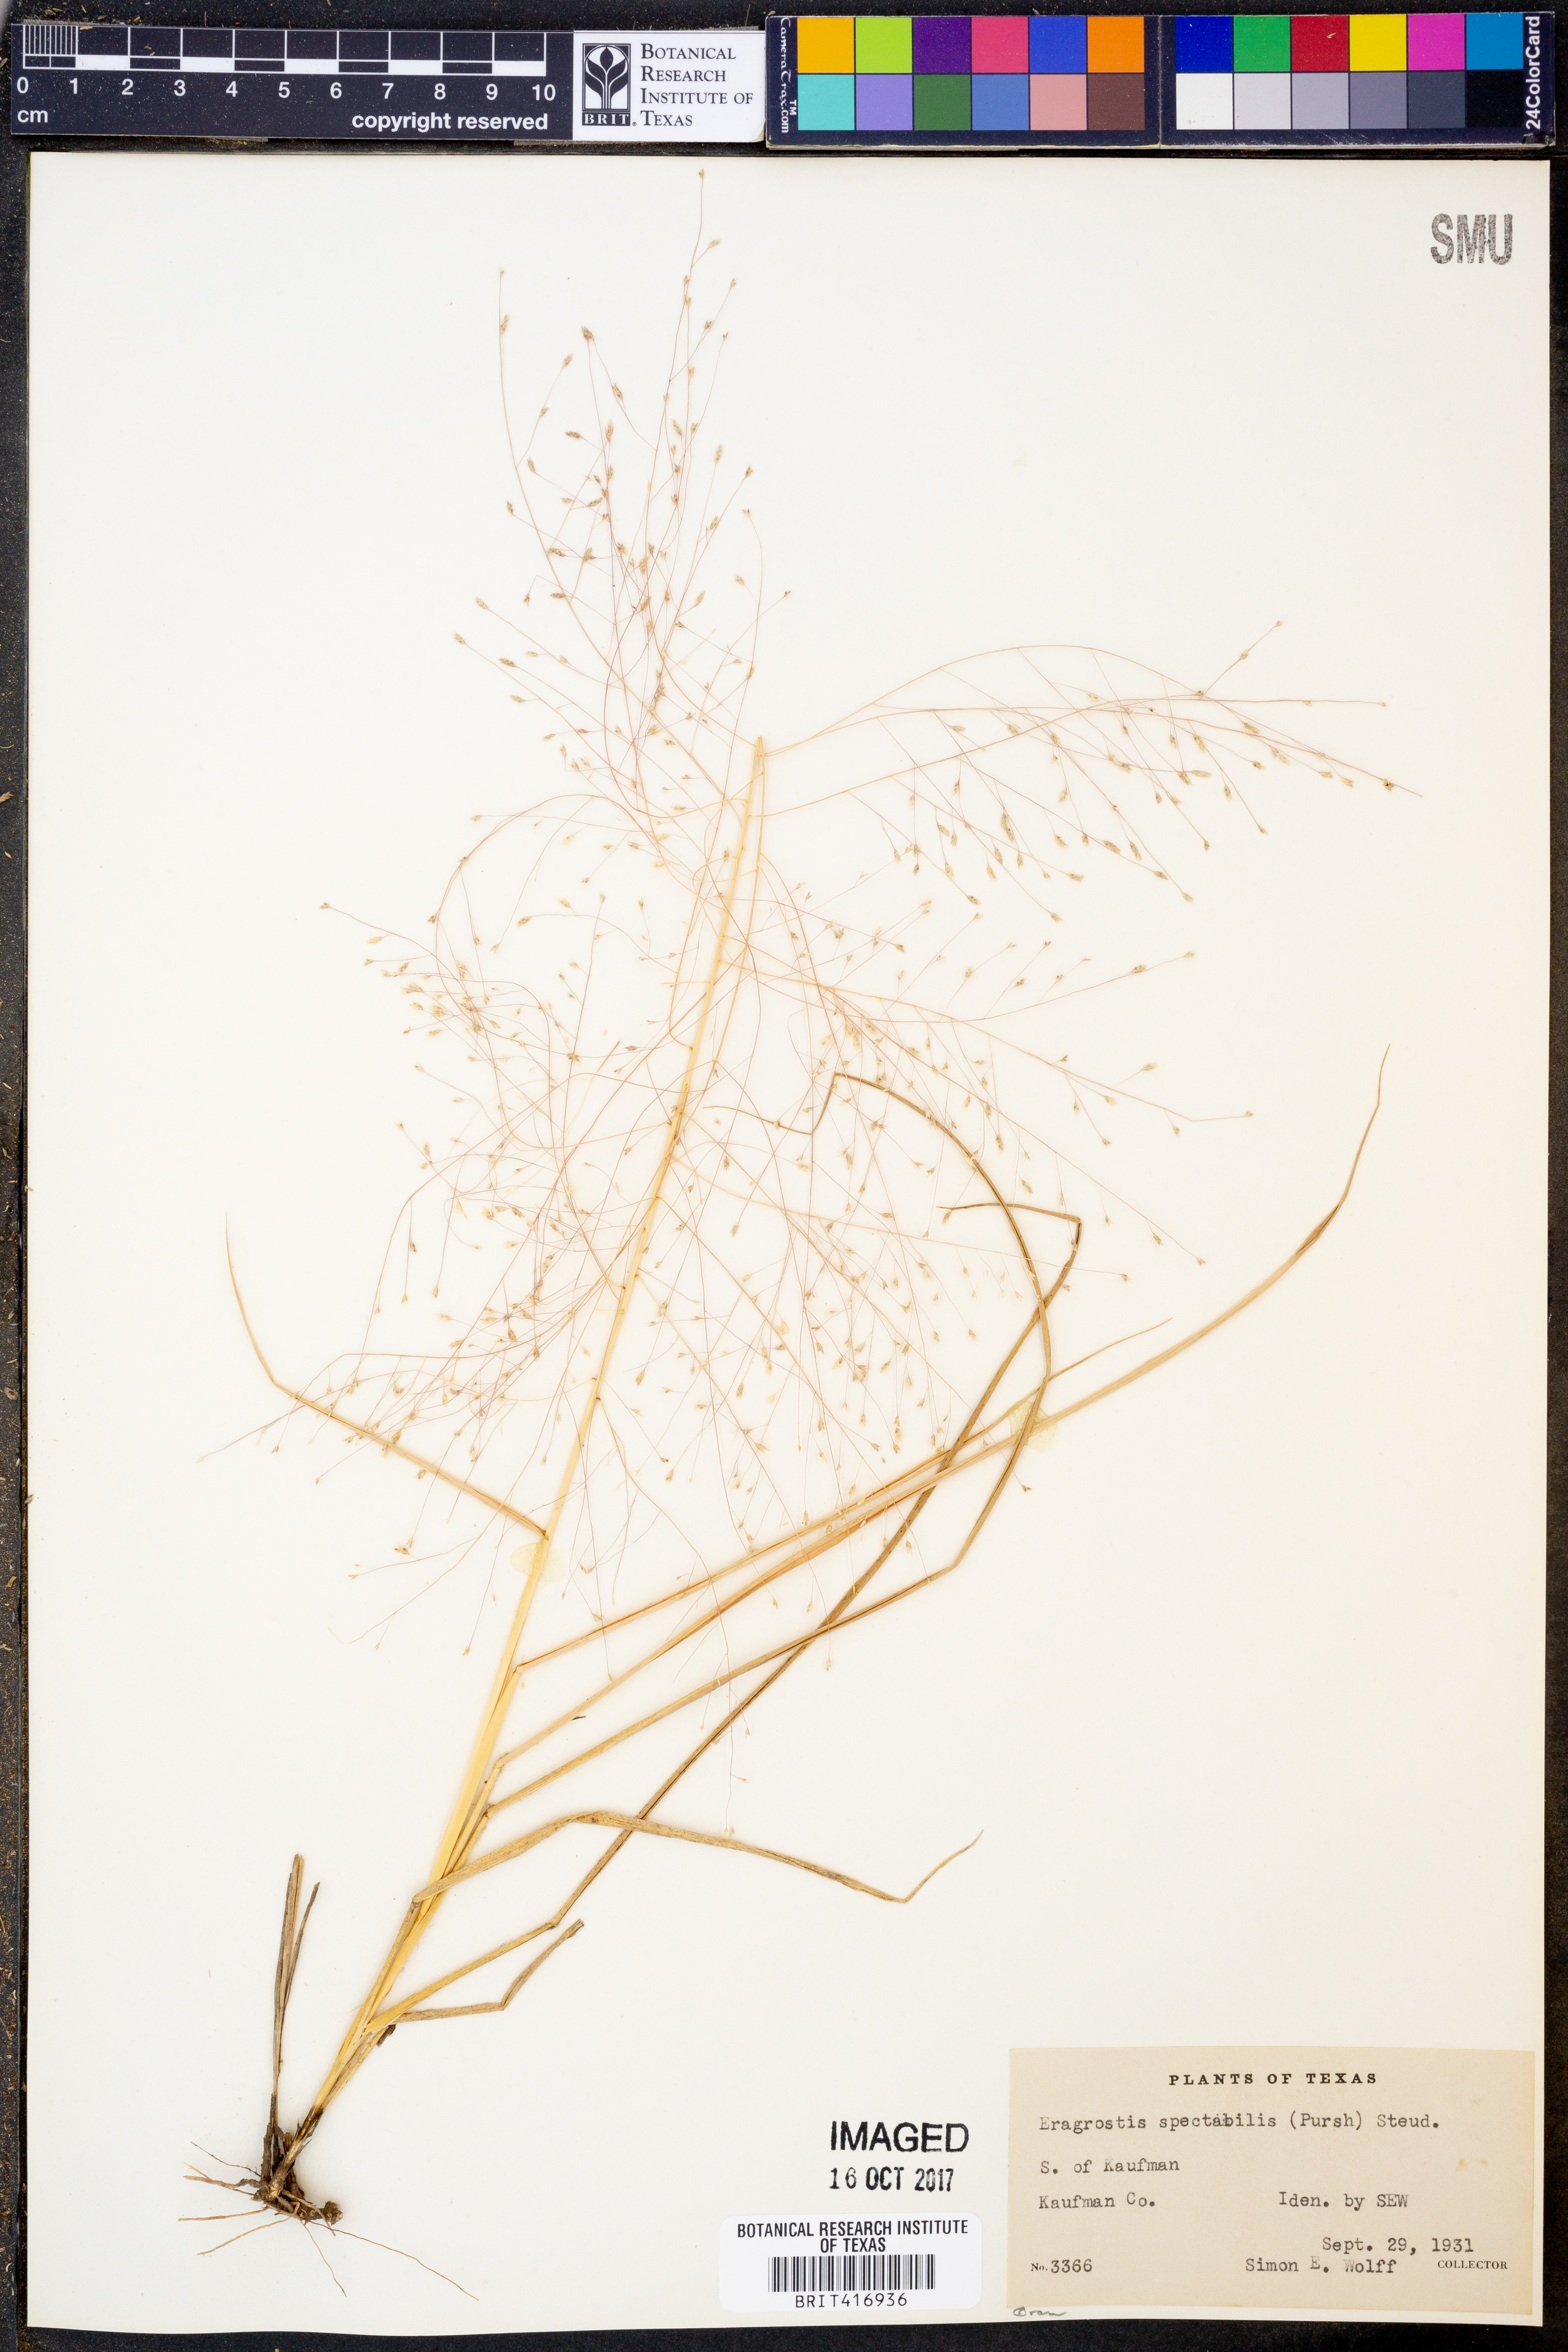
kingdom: Plantae
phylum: Tracheophyta
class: Liliopsida
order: Poales
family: Poaceae
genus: Eragrostis
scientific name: Eragrostis spectabilis
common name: Petticoat-climber
